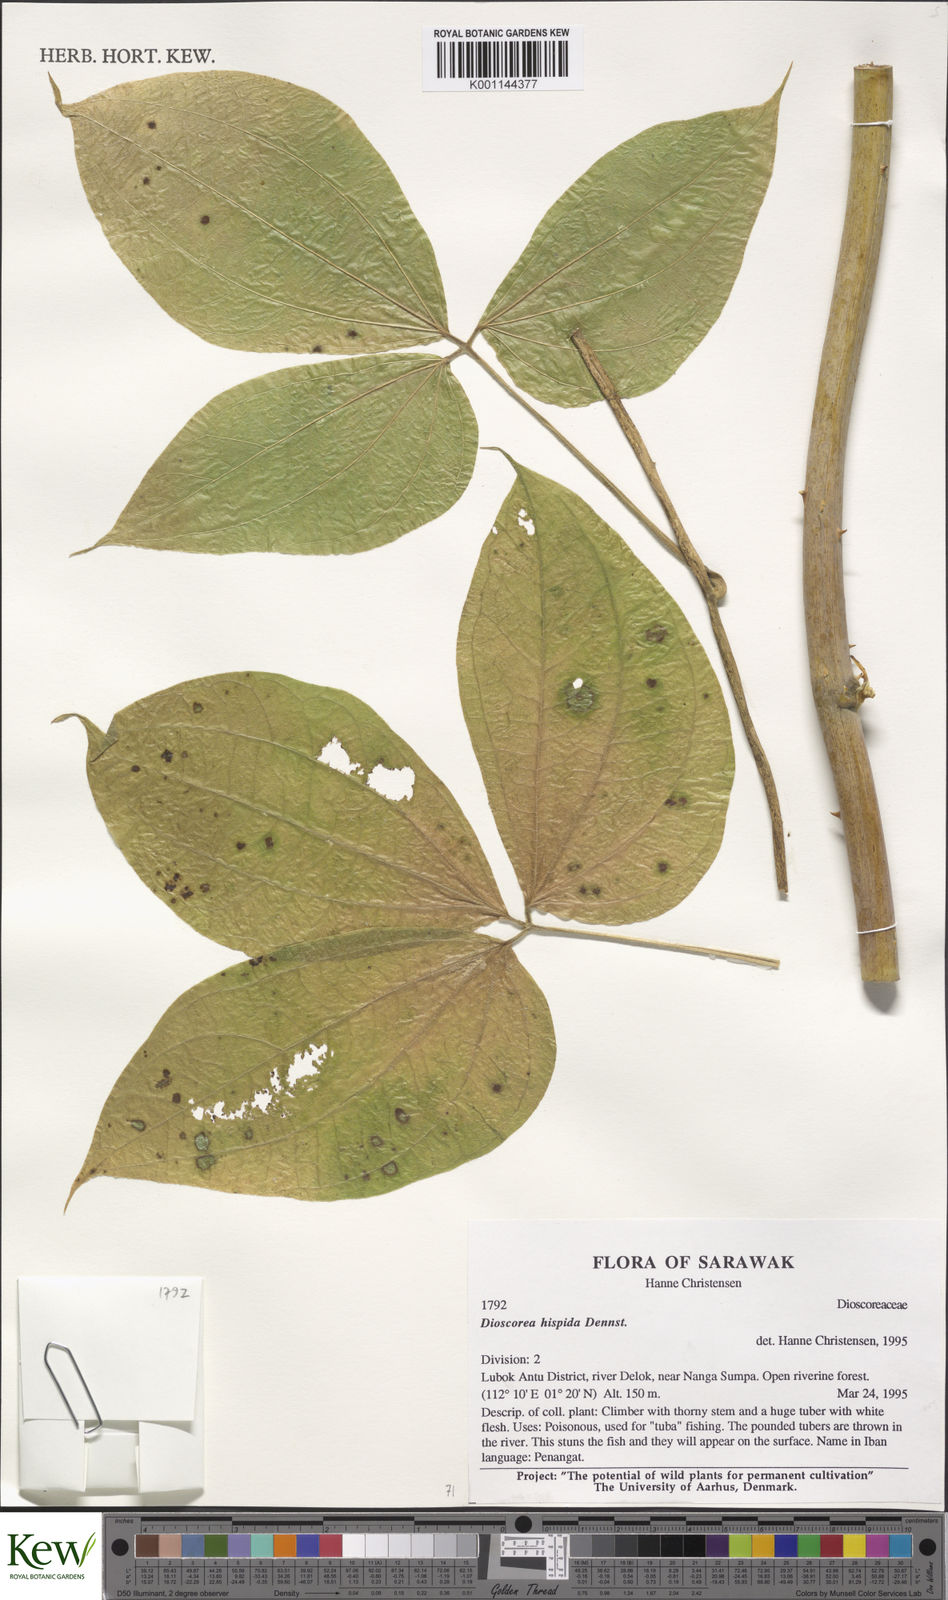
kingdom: Plantae
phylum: Tracheophyta
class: Liliopsida
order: Dioscoreales
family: Dioscoreaceae
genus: Dioscorea
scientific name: Dioscorea hispida
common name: Asiatic bitter yam
